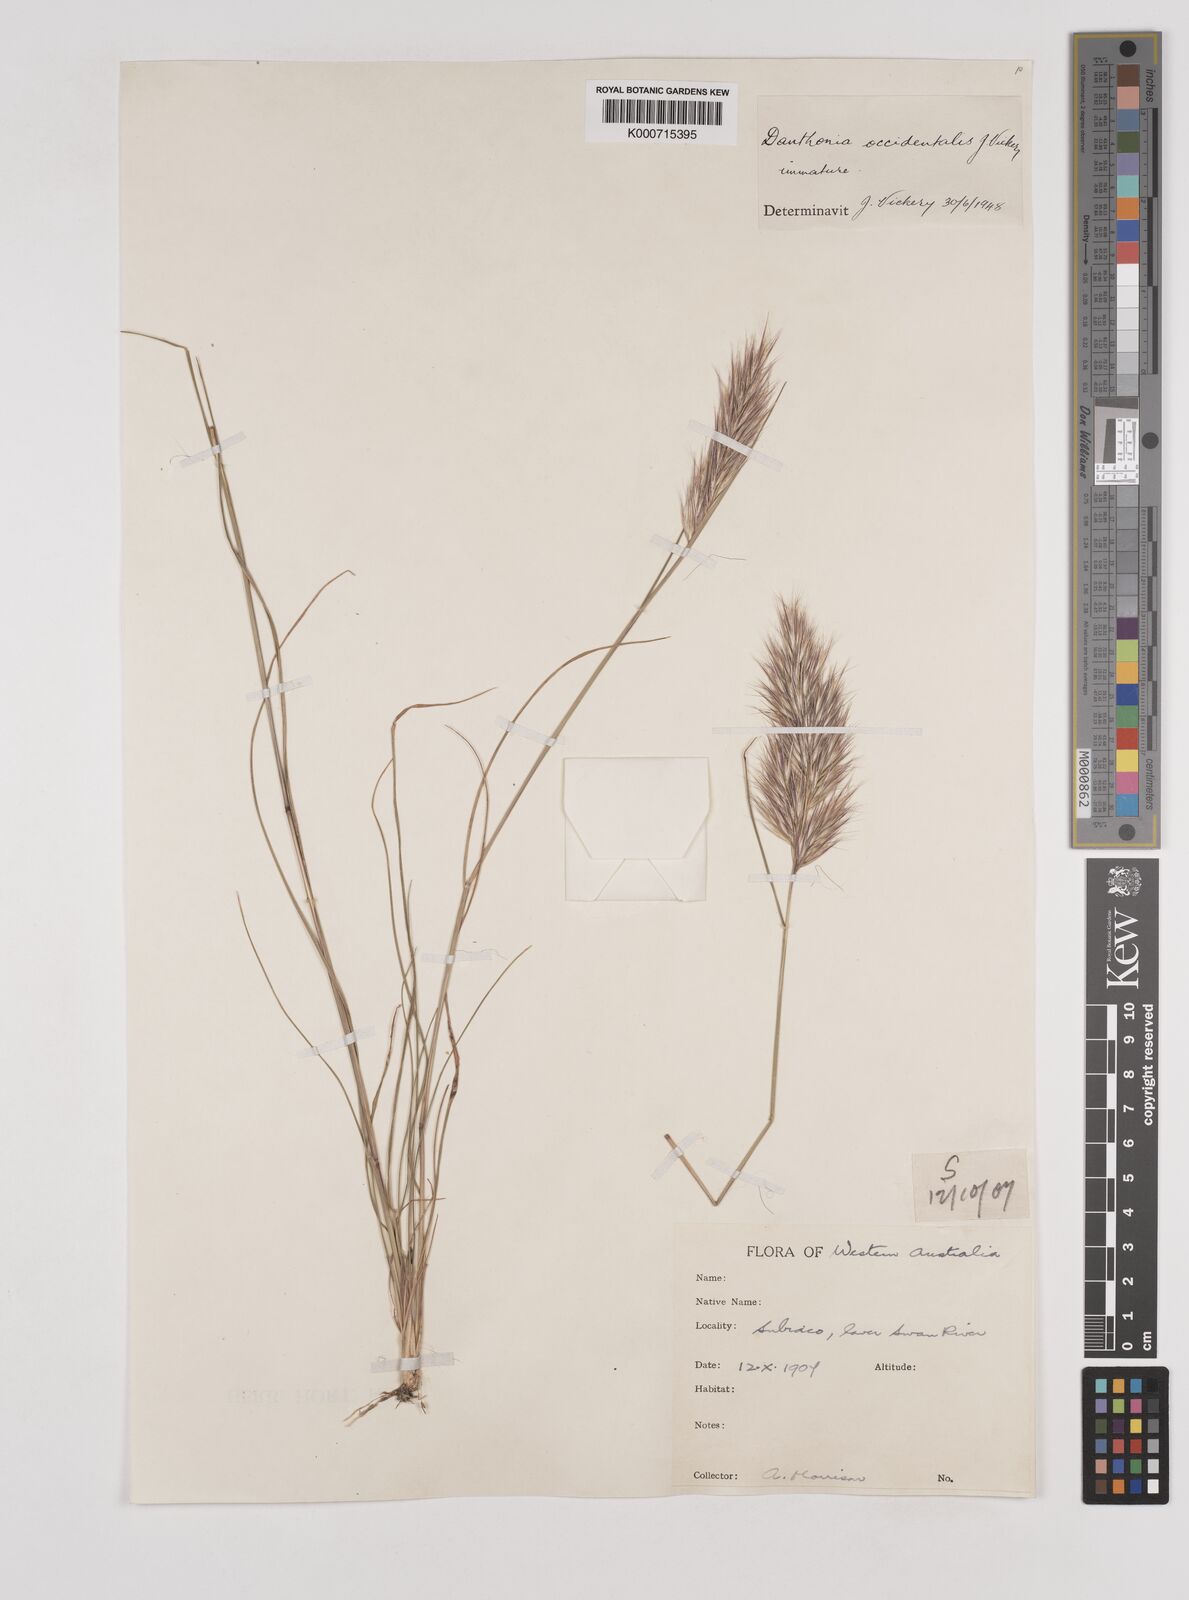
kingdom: Plantae
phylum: Tracheophyta
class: Liliopsida
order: Poales
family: Poaceae
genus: Rytidosperma
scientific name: Rytidosperma occidentale
